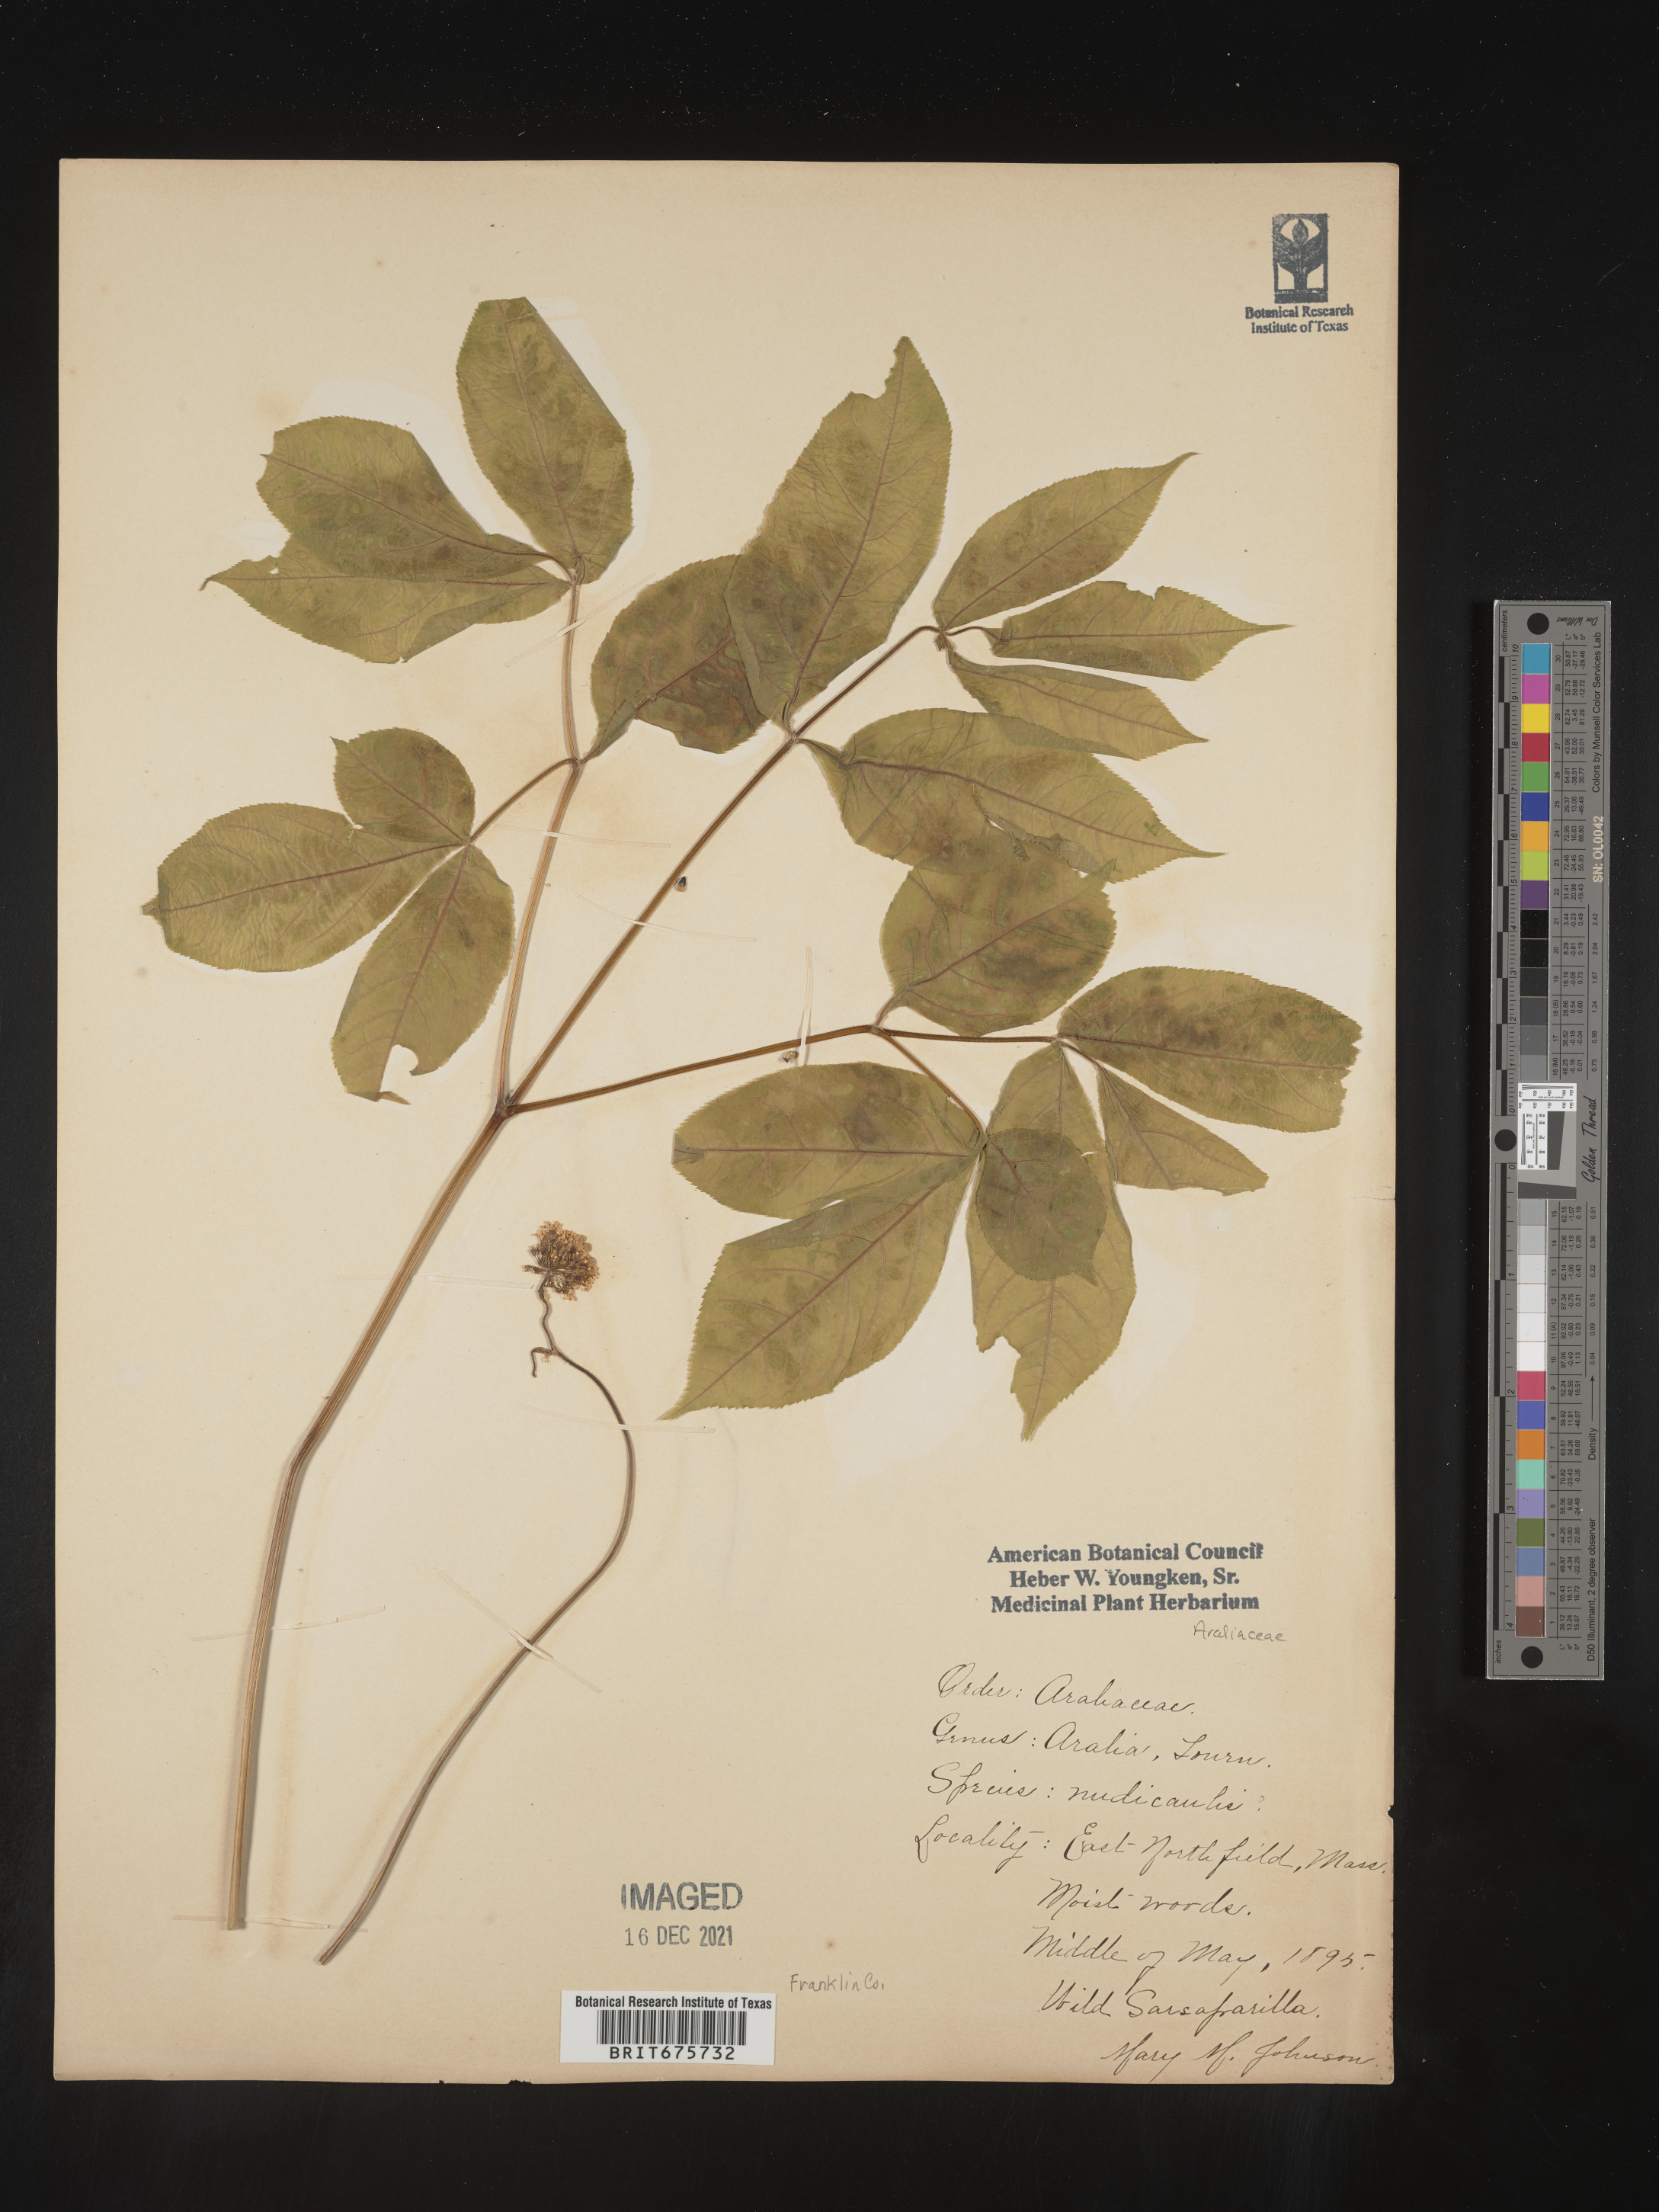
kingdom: Plantae
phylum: Tracheophyta
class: Magnoliopsida
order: Apiales
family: Araliaceae
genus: Aralia
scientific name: Aralia nudicaulis
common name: Wild sarsaparilla
